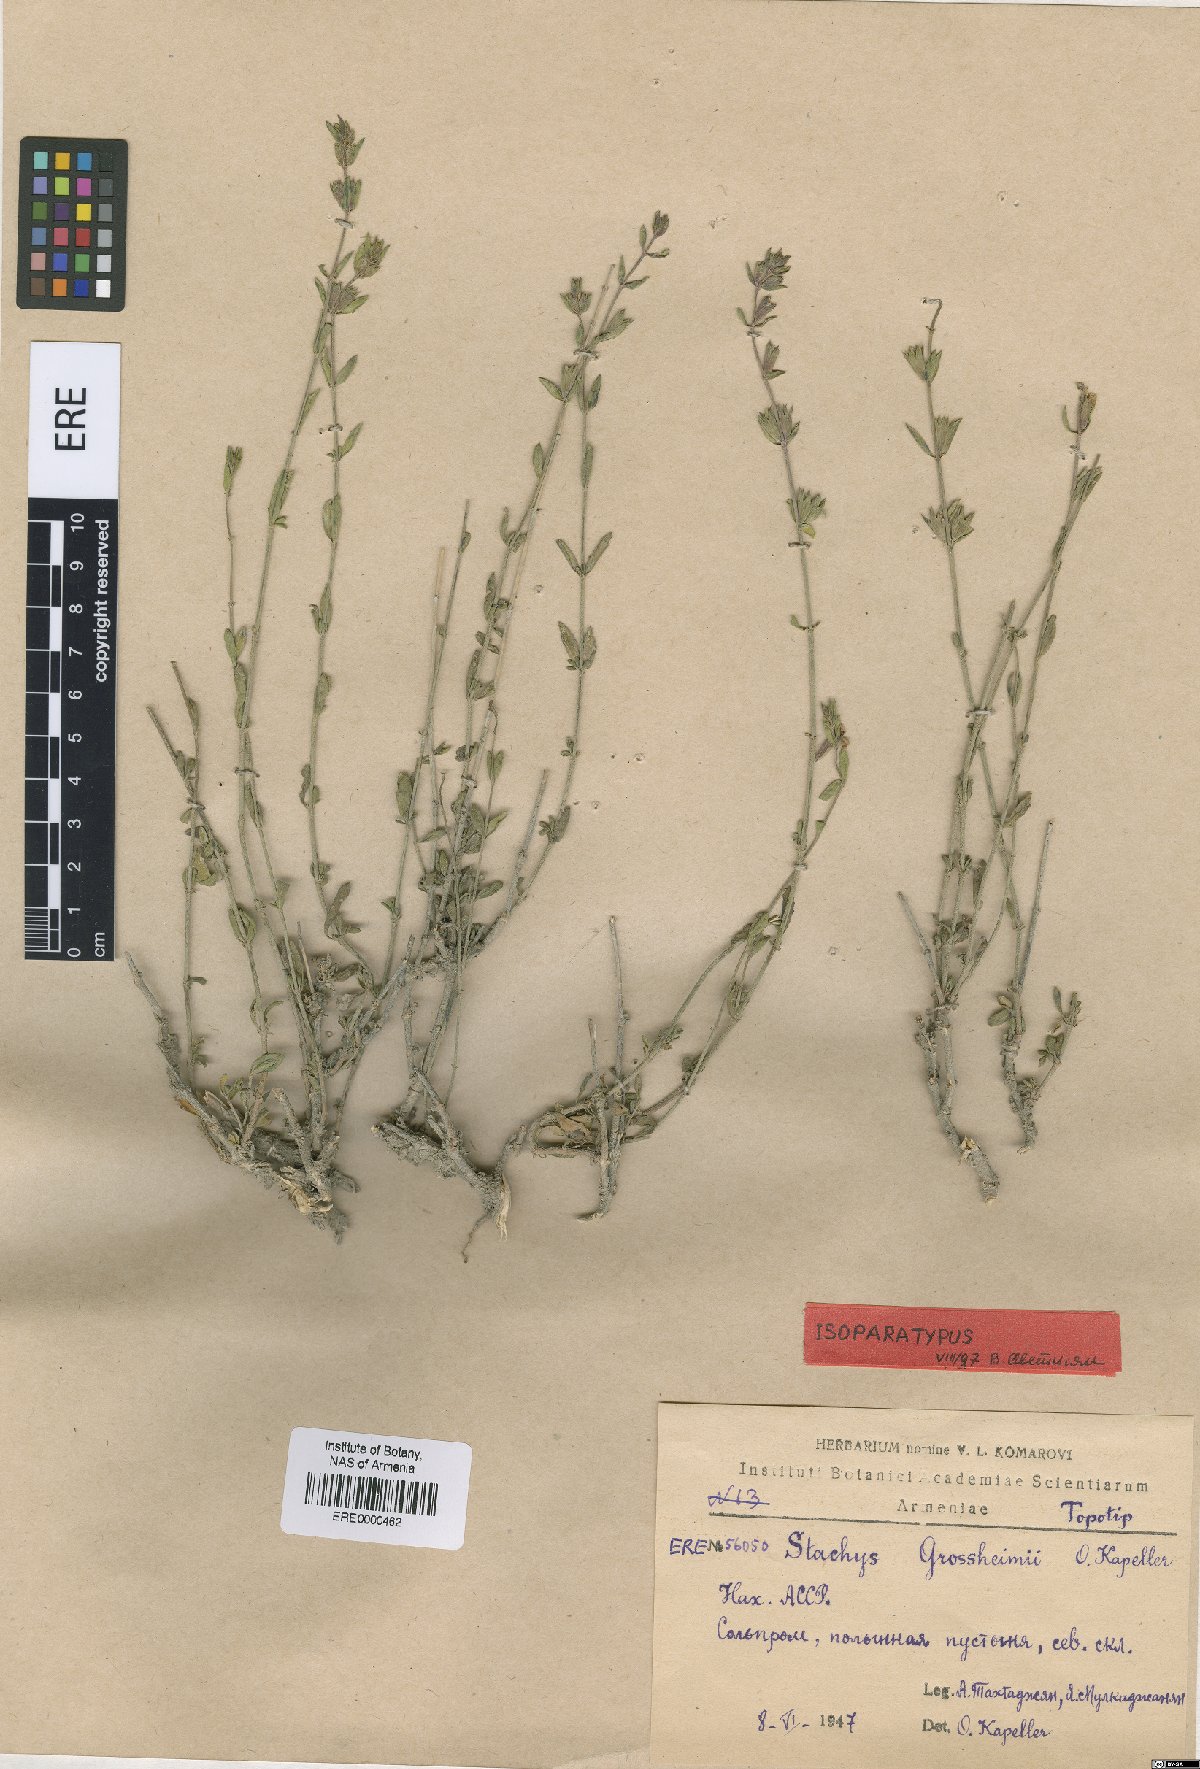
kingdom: Plantae
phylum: Tracheophyta
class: Magnoliopsida
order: Lamiales
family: Lamiaceae
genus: Stachys
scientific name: Stachys fruticulosa
